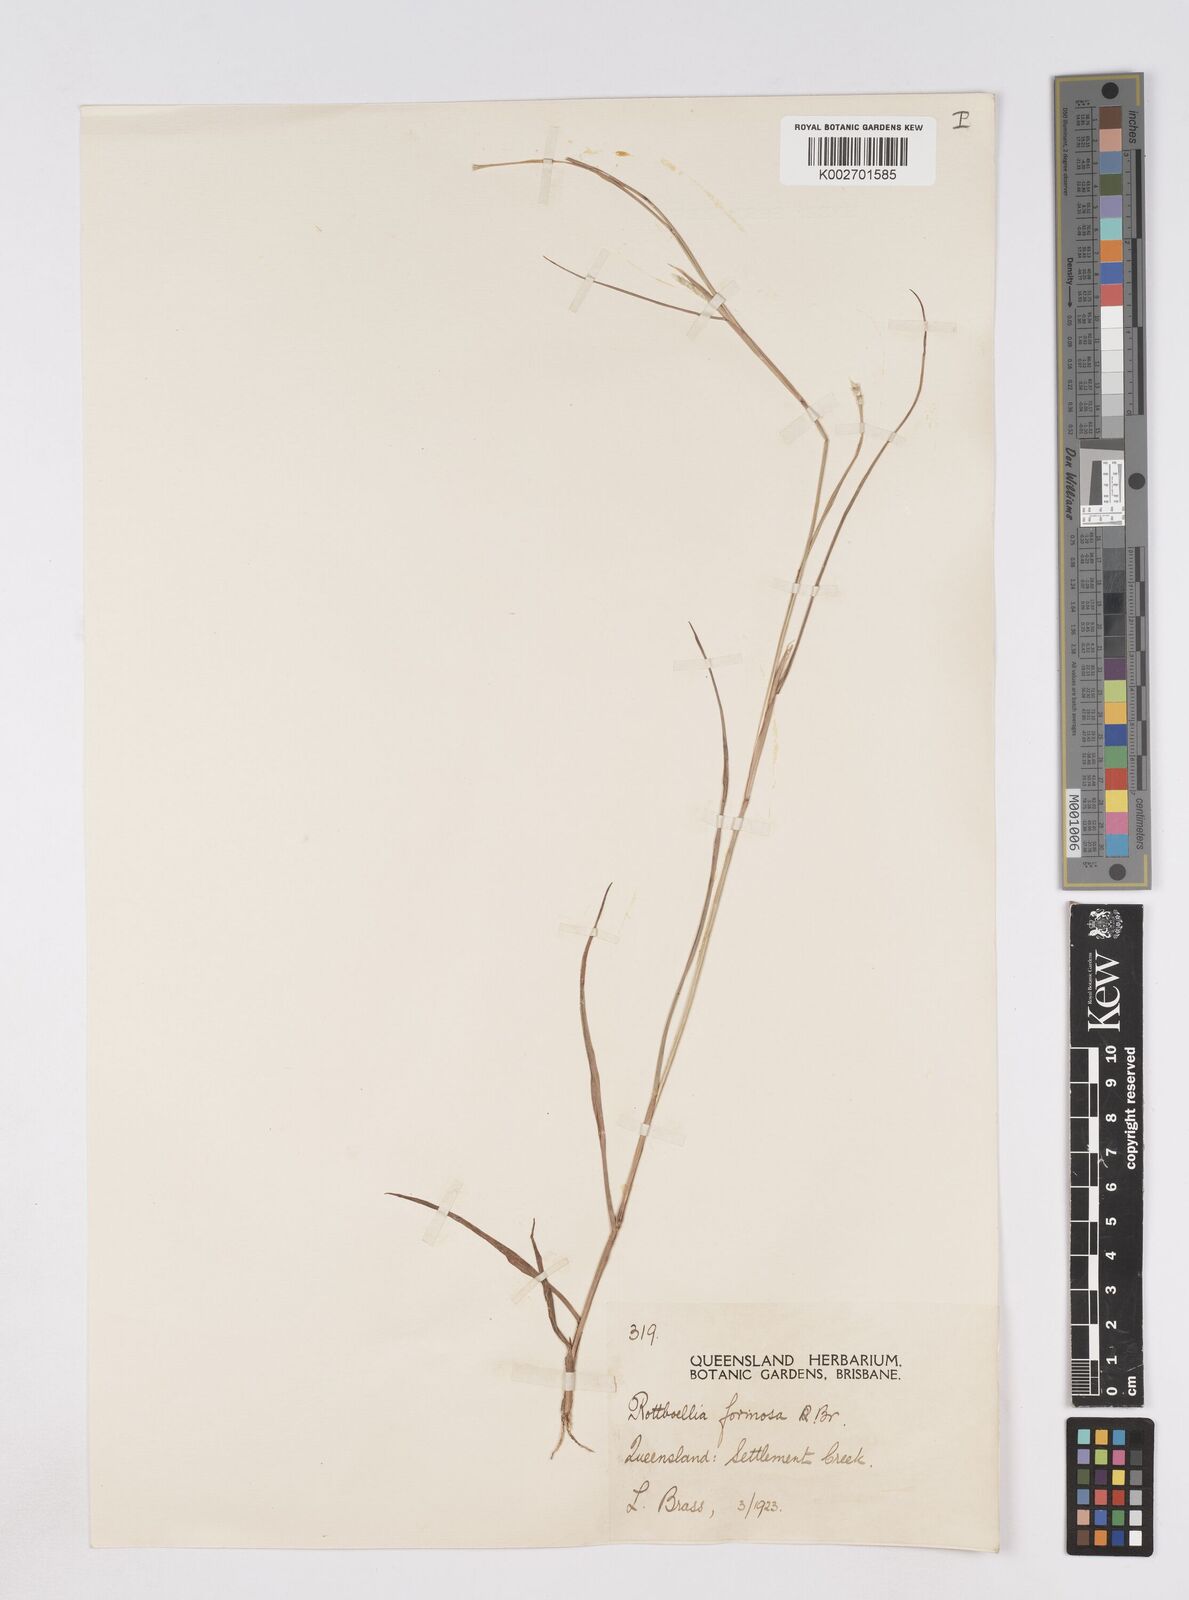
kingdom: Plantae
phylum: Tracheophyta
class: Liliopsida
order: Poales
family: Poaceae
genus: Heteropholis
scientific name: Heteropholis
